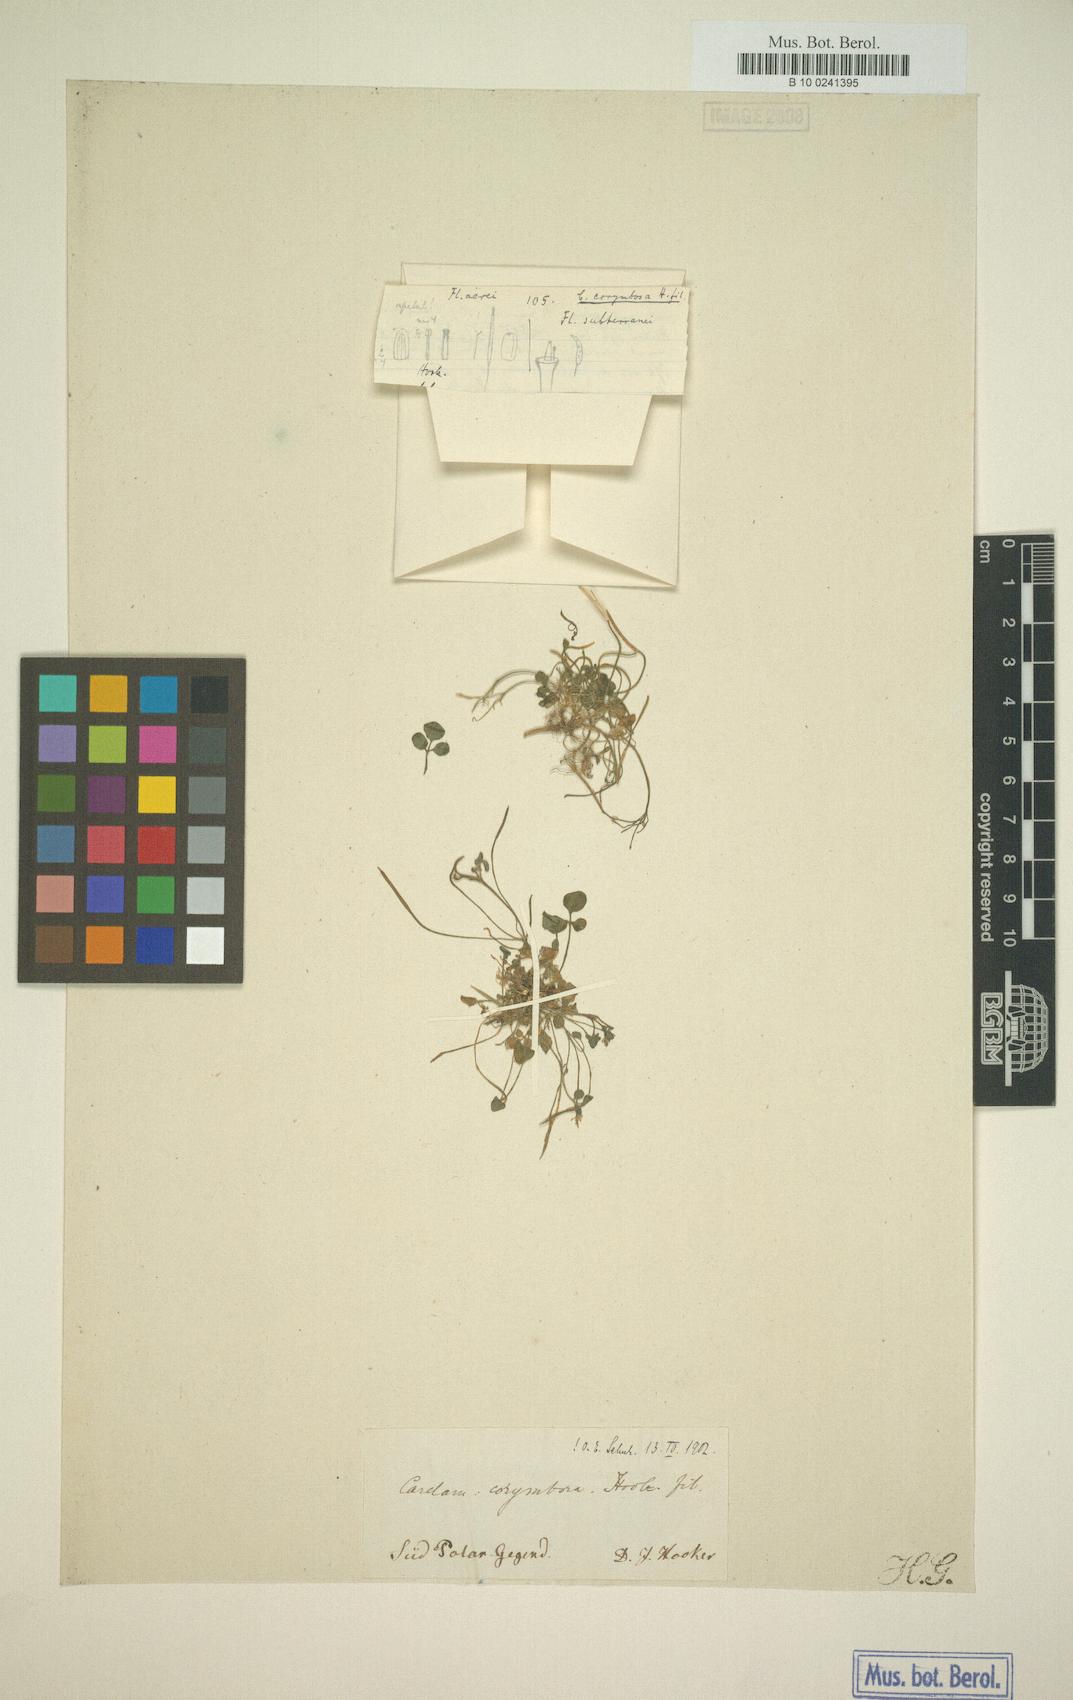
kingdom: Plantae
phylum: Tracheophyta
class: Magnoliopsida
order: Brassicales
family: Brassicaceae
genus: Cardamine
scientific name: Cardamine corymbosa
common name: New zealand bitter-cress
